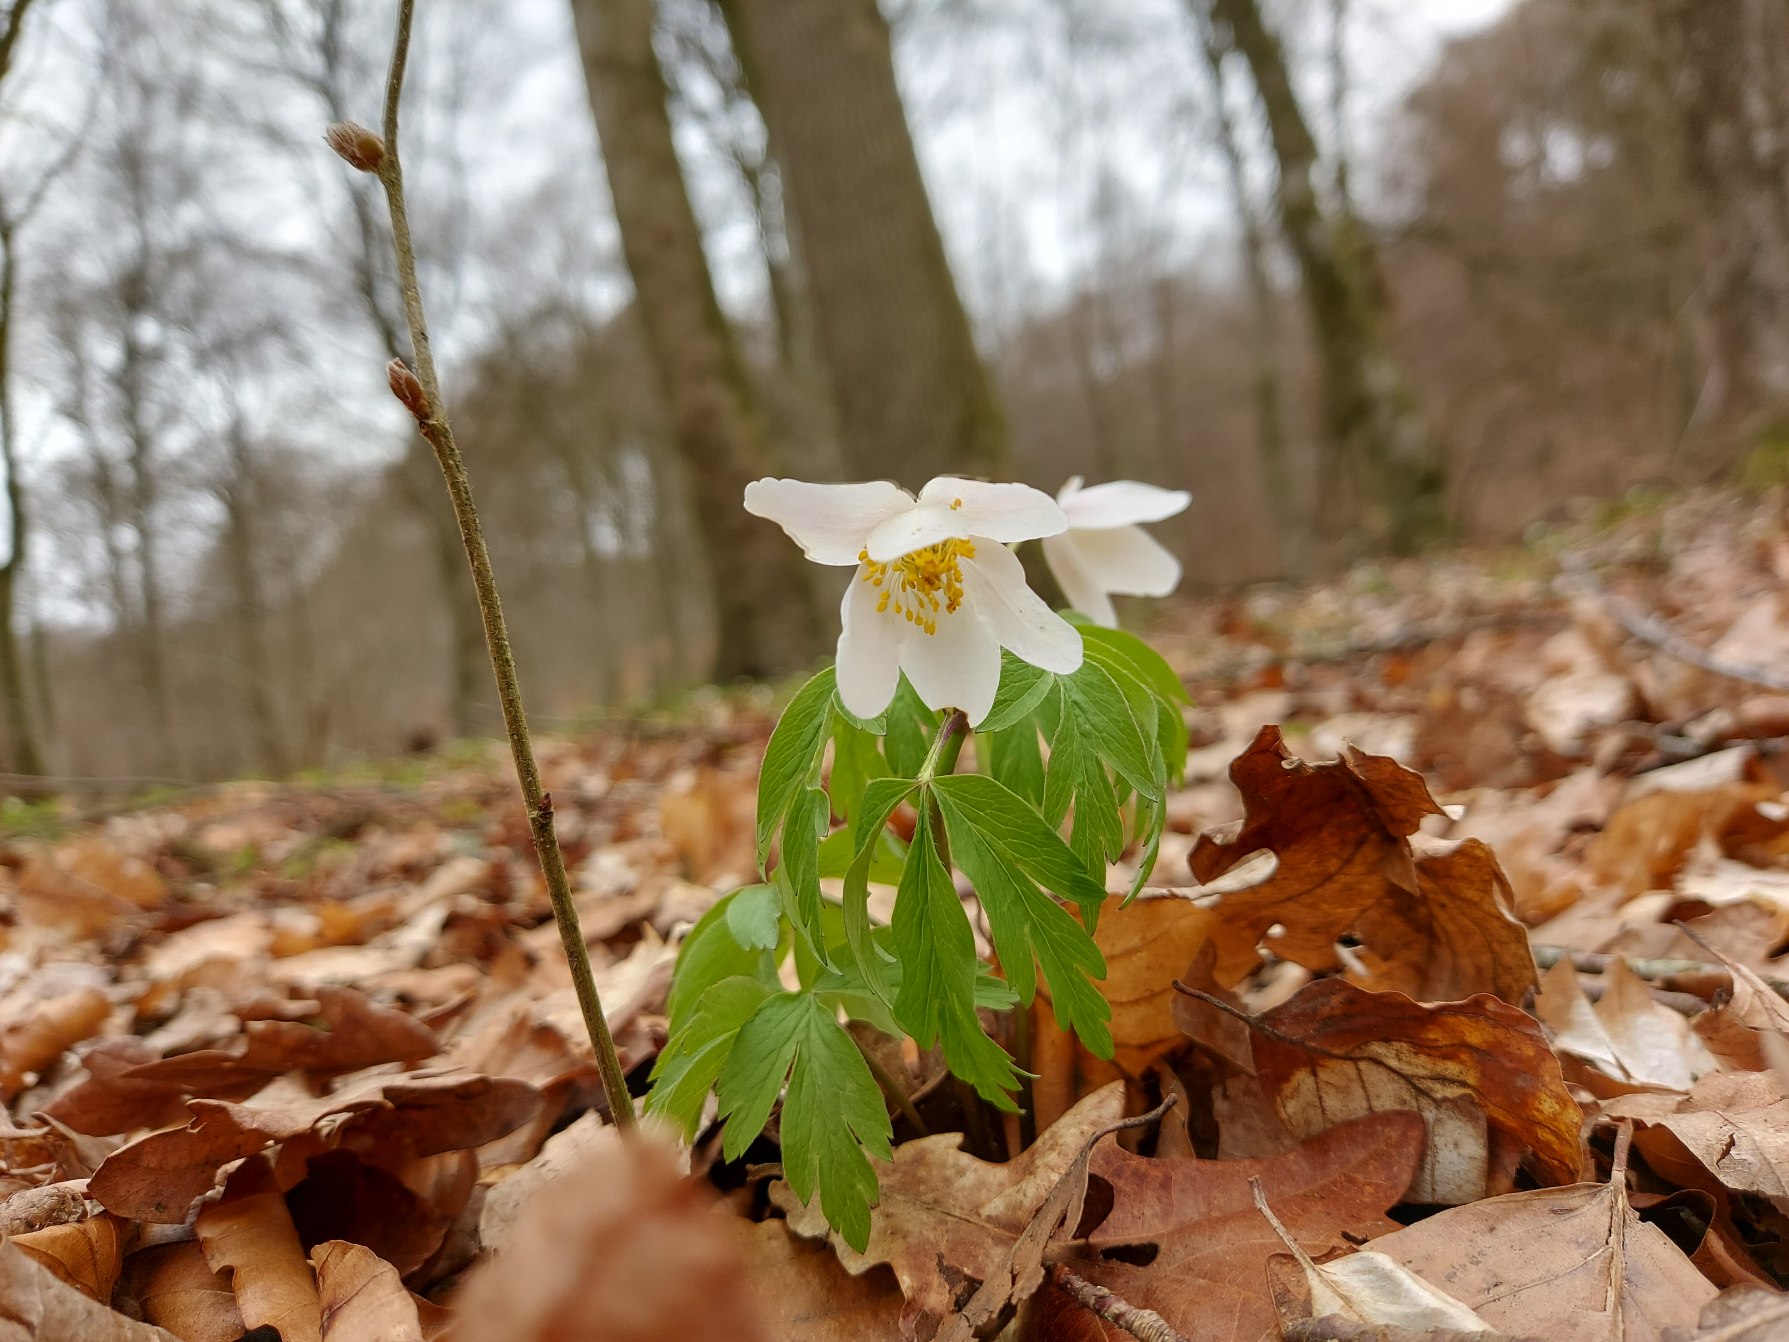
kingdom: Plantae
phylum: Tracheophyta
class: Magnoliopsida
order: Ranunculales
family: Ranunculaceae
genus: Anemone
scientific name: Anemone nemorosa
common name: Hvid anemone
